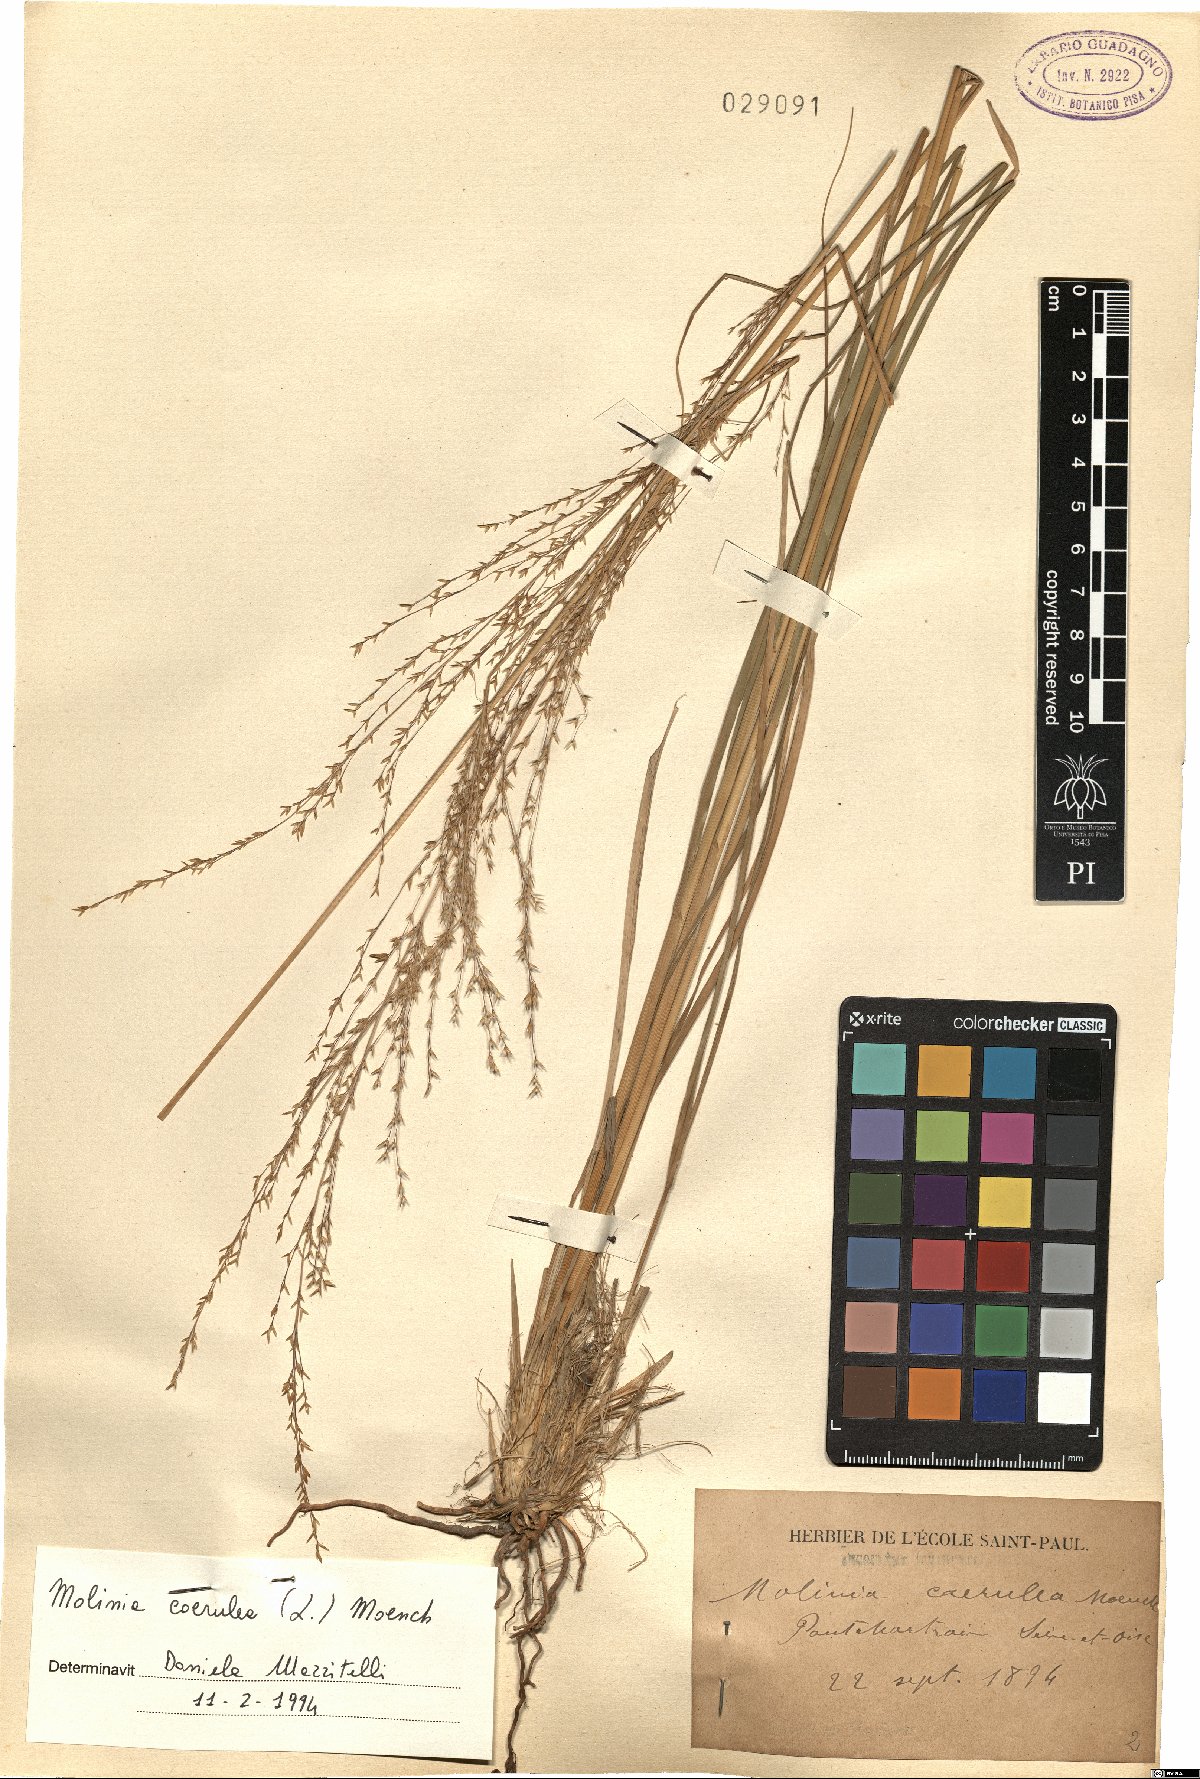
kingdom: Plantae
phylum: Tracheophyta
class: Liliopsida
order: Poales
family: Poaceae
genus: Molinia
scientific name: Molinia caerulea
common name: Purple moor-grass
